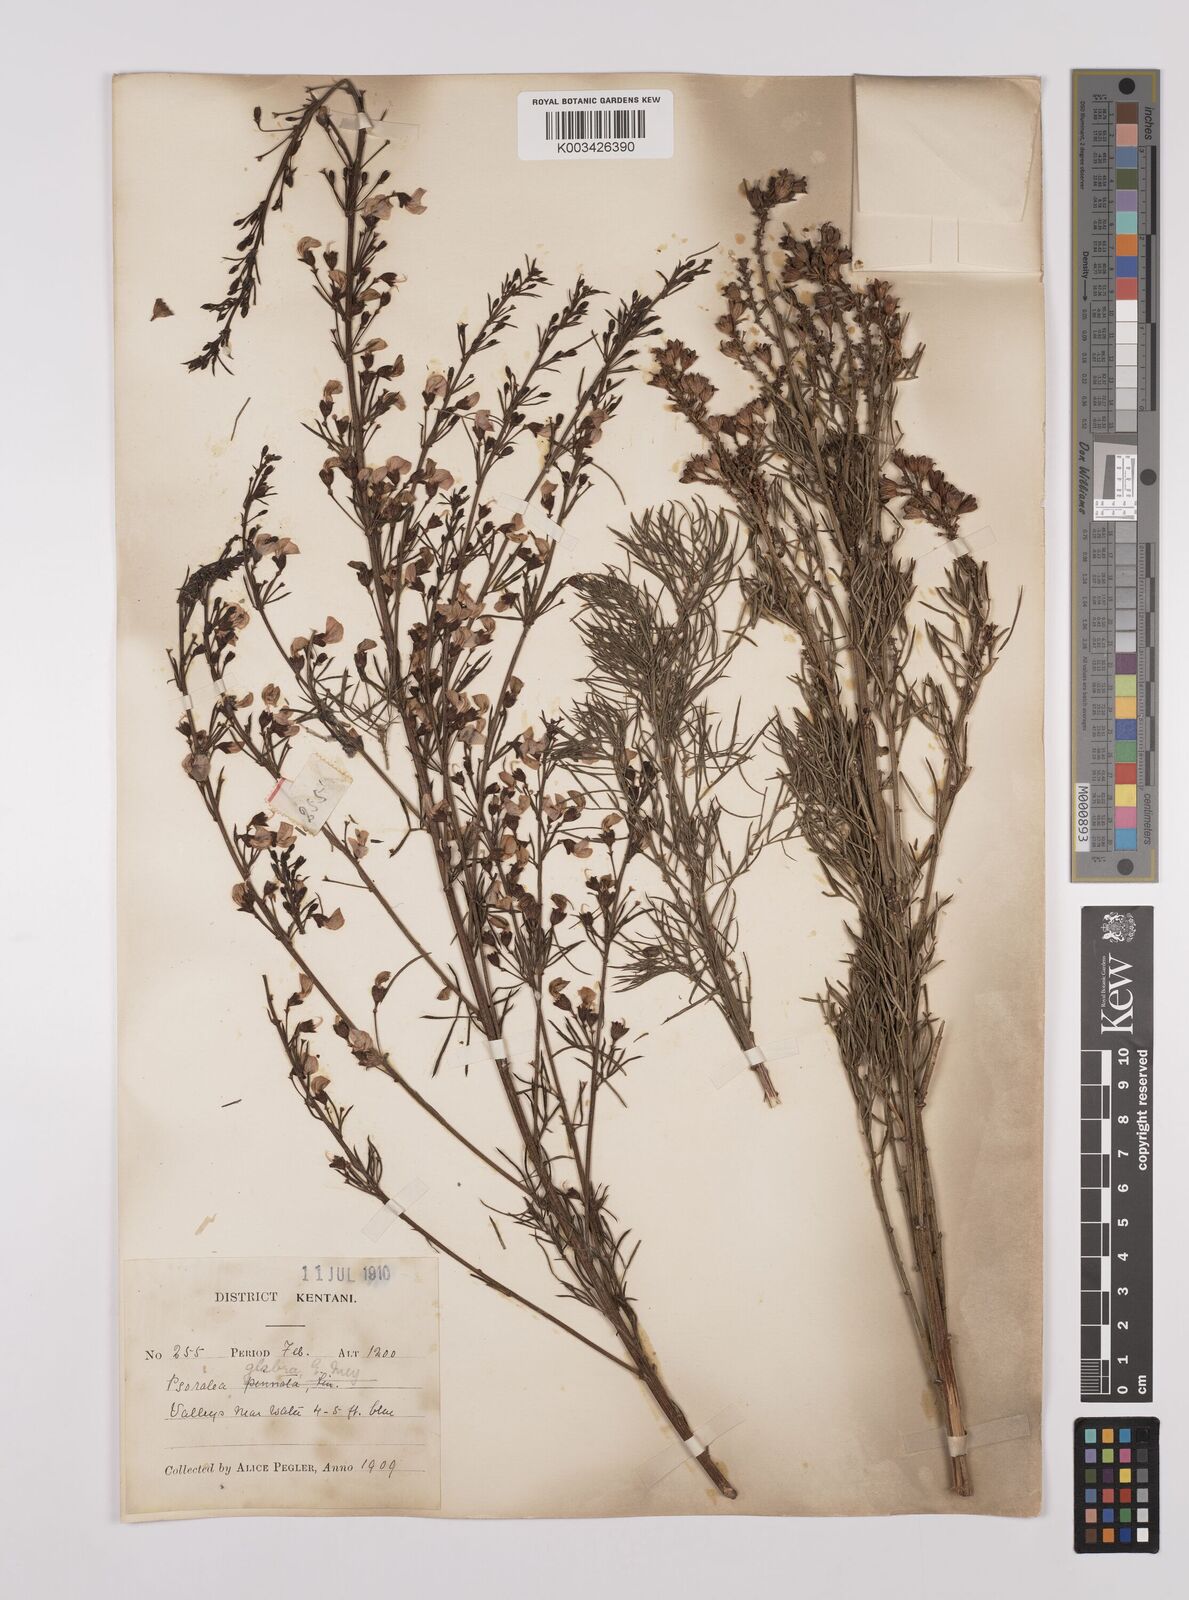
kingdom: Plantae
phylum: Tracheophyta
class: Magnoliopsida
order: Fabales
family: Fabaceae
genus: Psoralea
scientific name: Psoralea rhizotoma
